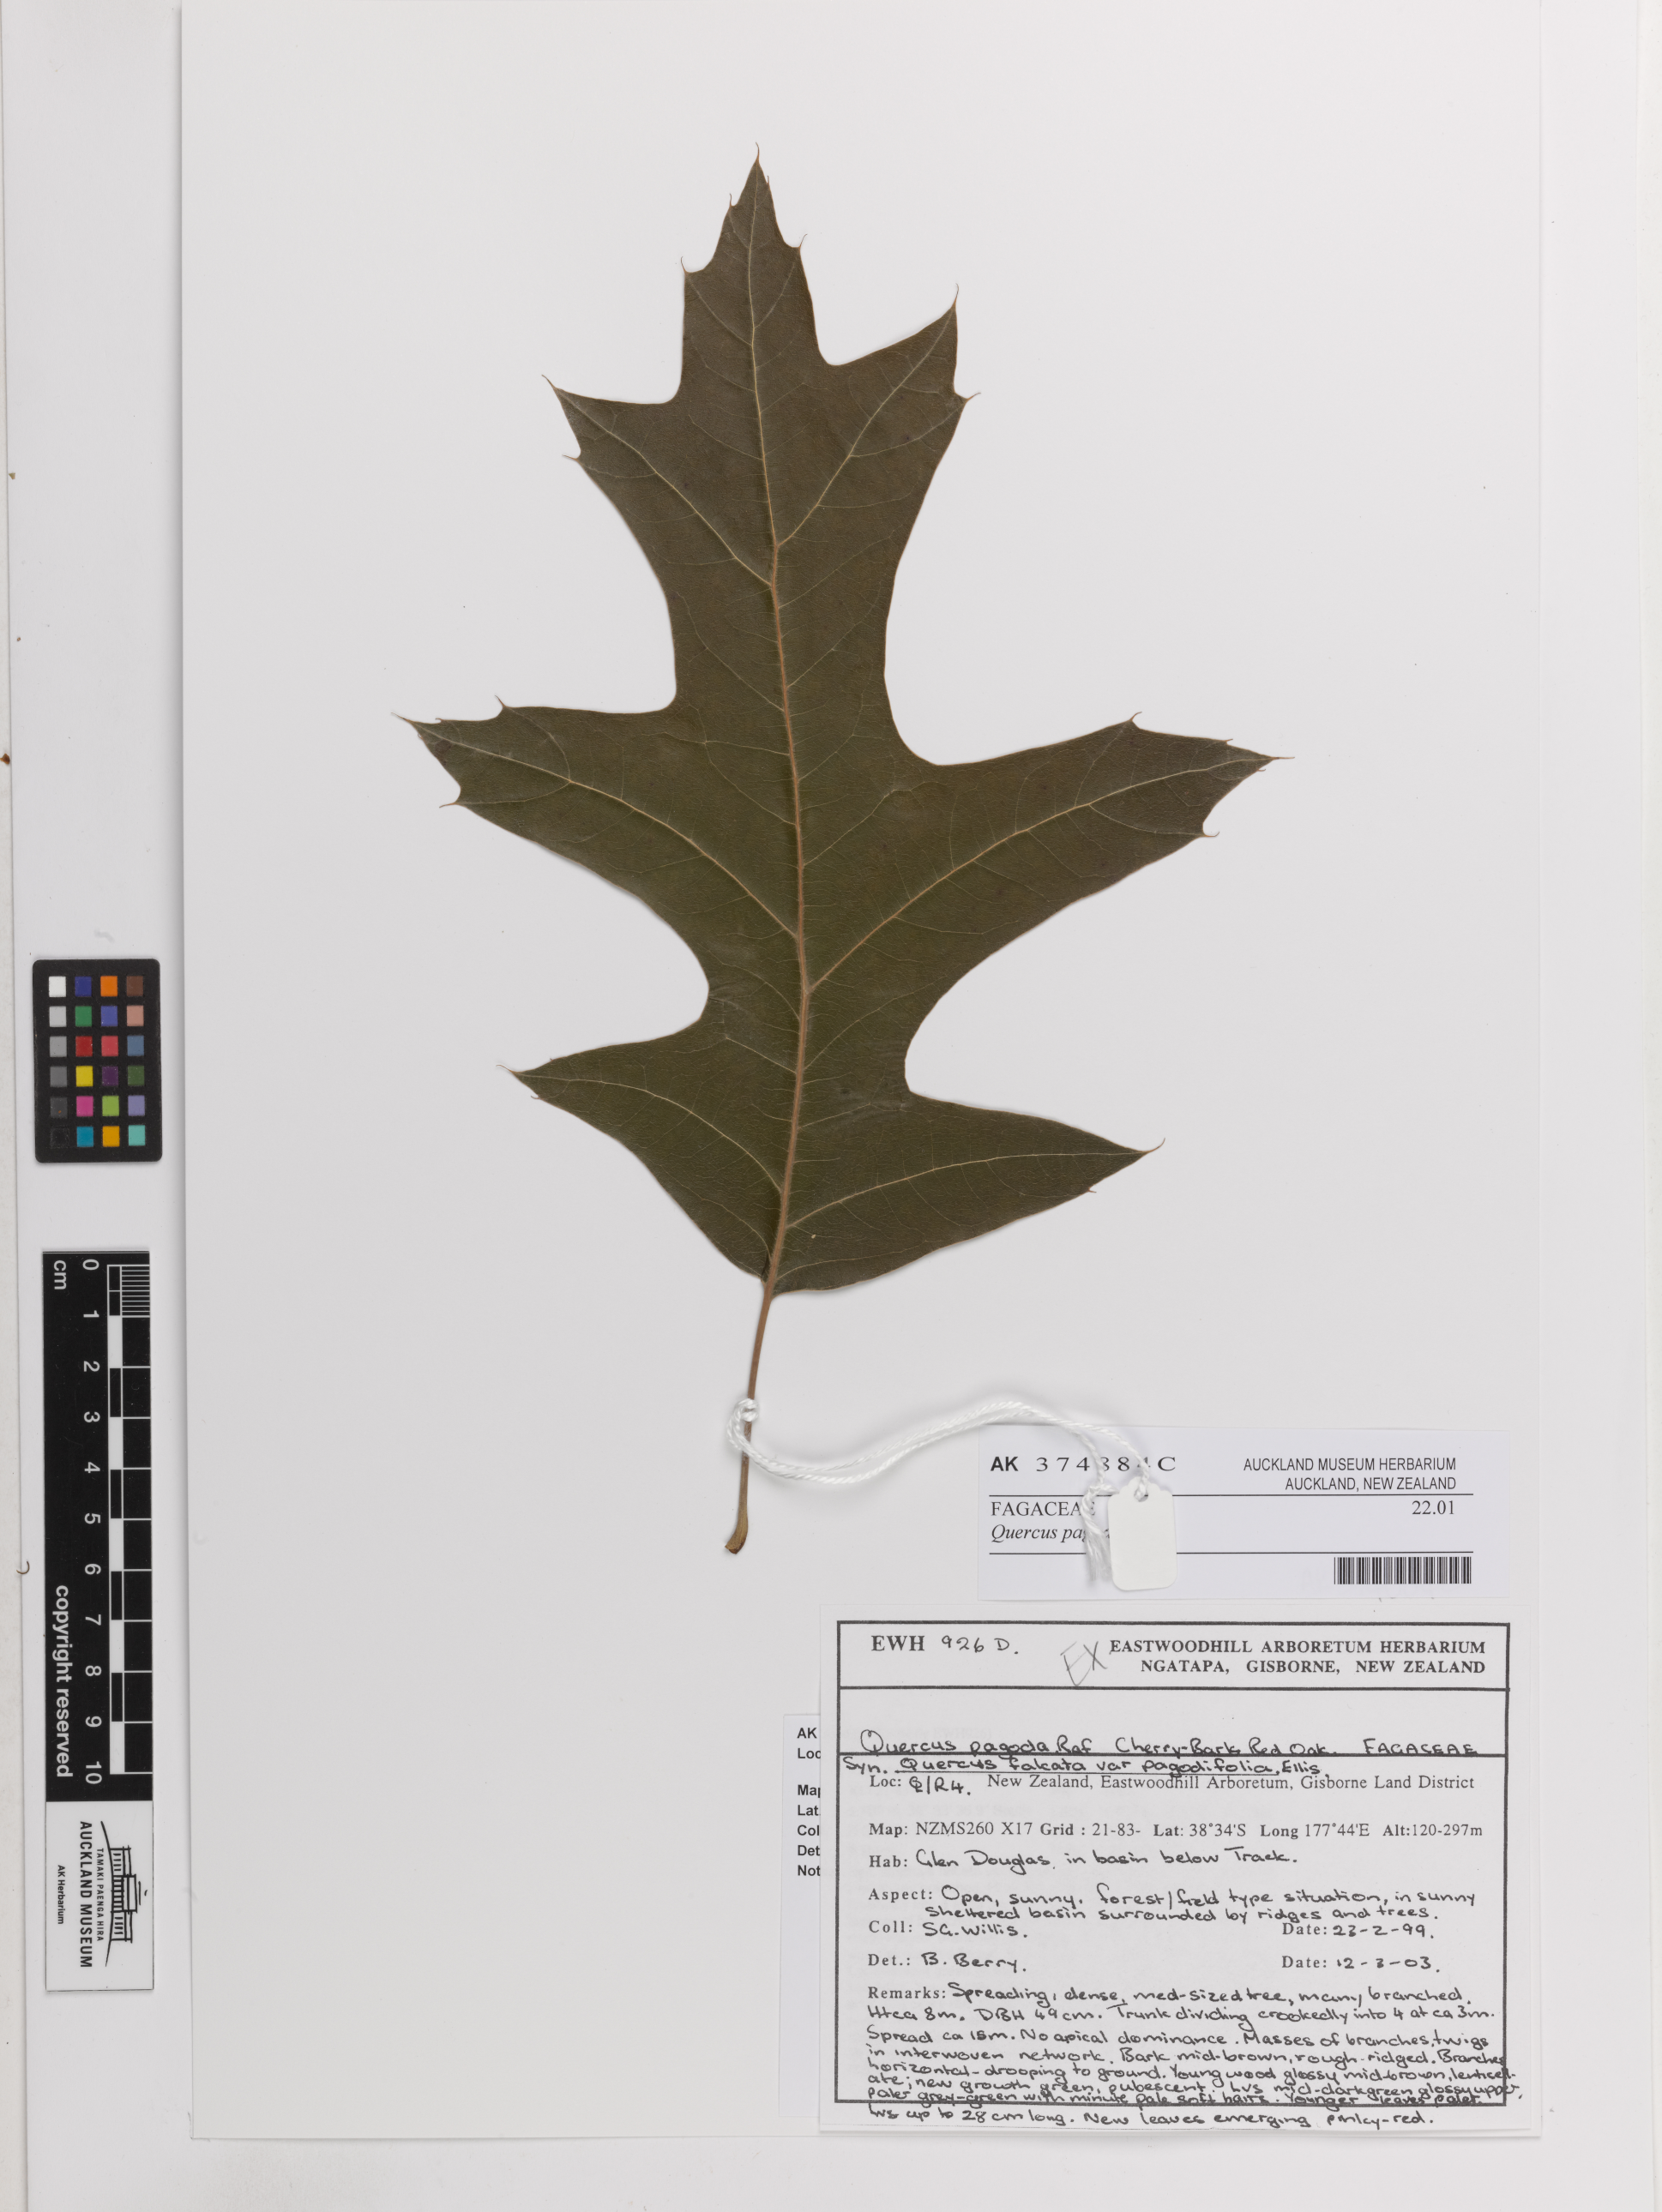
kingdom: Plantae
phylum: Tracheophyta
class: Magnoliopsida
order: Fagales
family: Fagaceae
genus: Quercus
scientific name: Quercus pagoda
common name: Cherrybark oak
